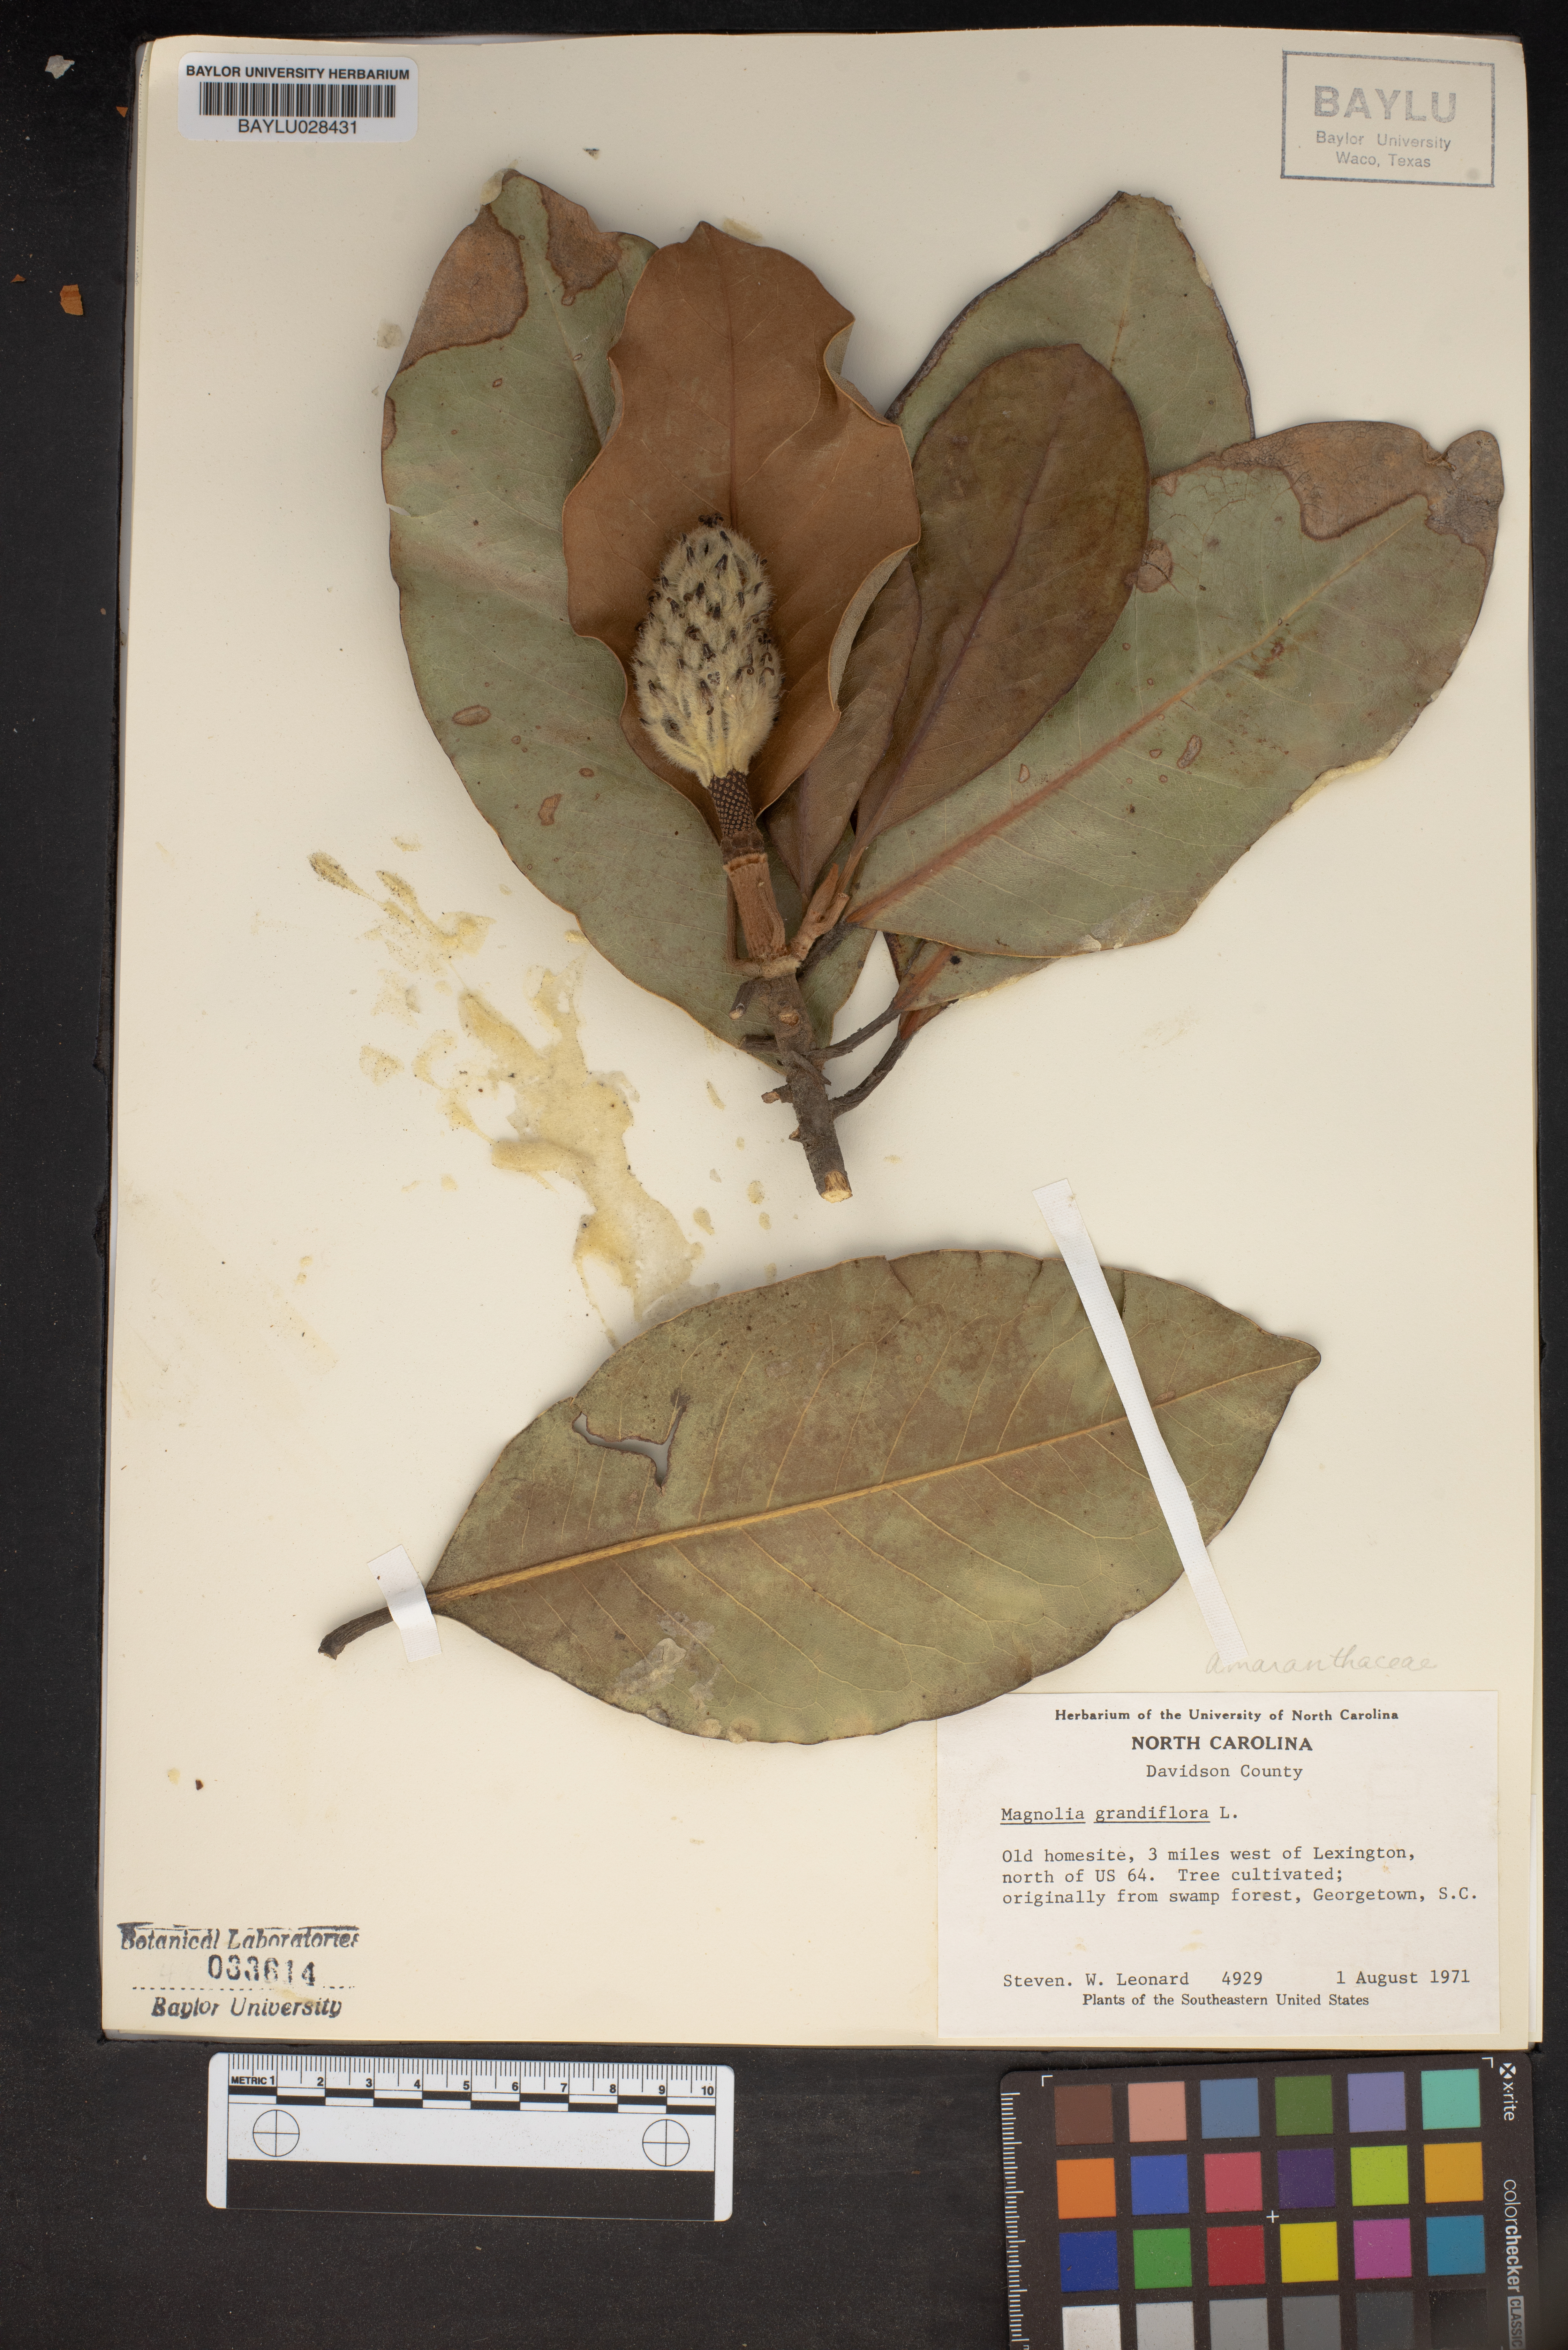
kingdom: Plantae
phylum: Tracheophyta
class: Magnoliopsida
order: Magnoliales
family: Magnoliaceae
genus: Magnolia
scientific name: Magnolia grandiflora
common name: Southern magnolia
